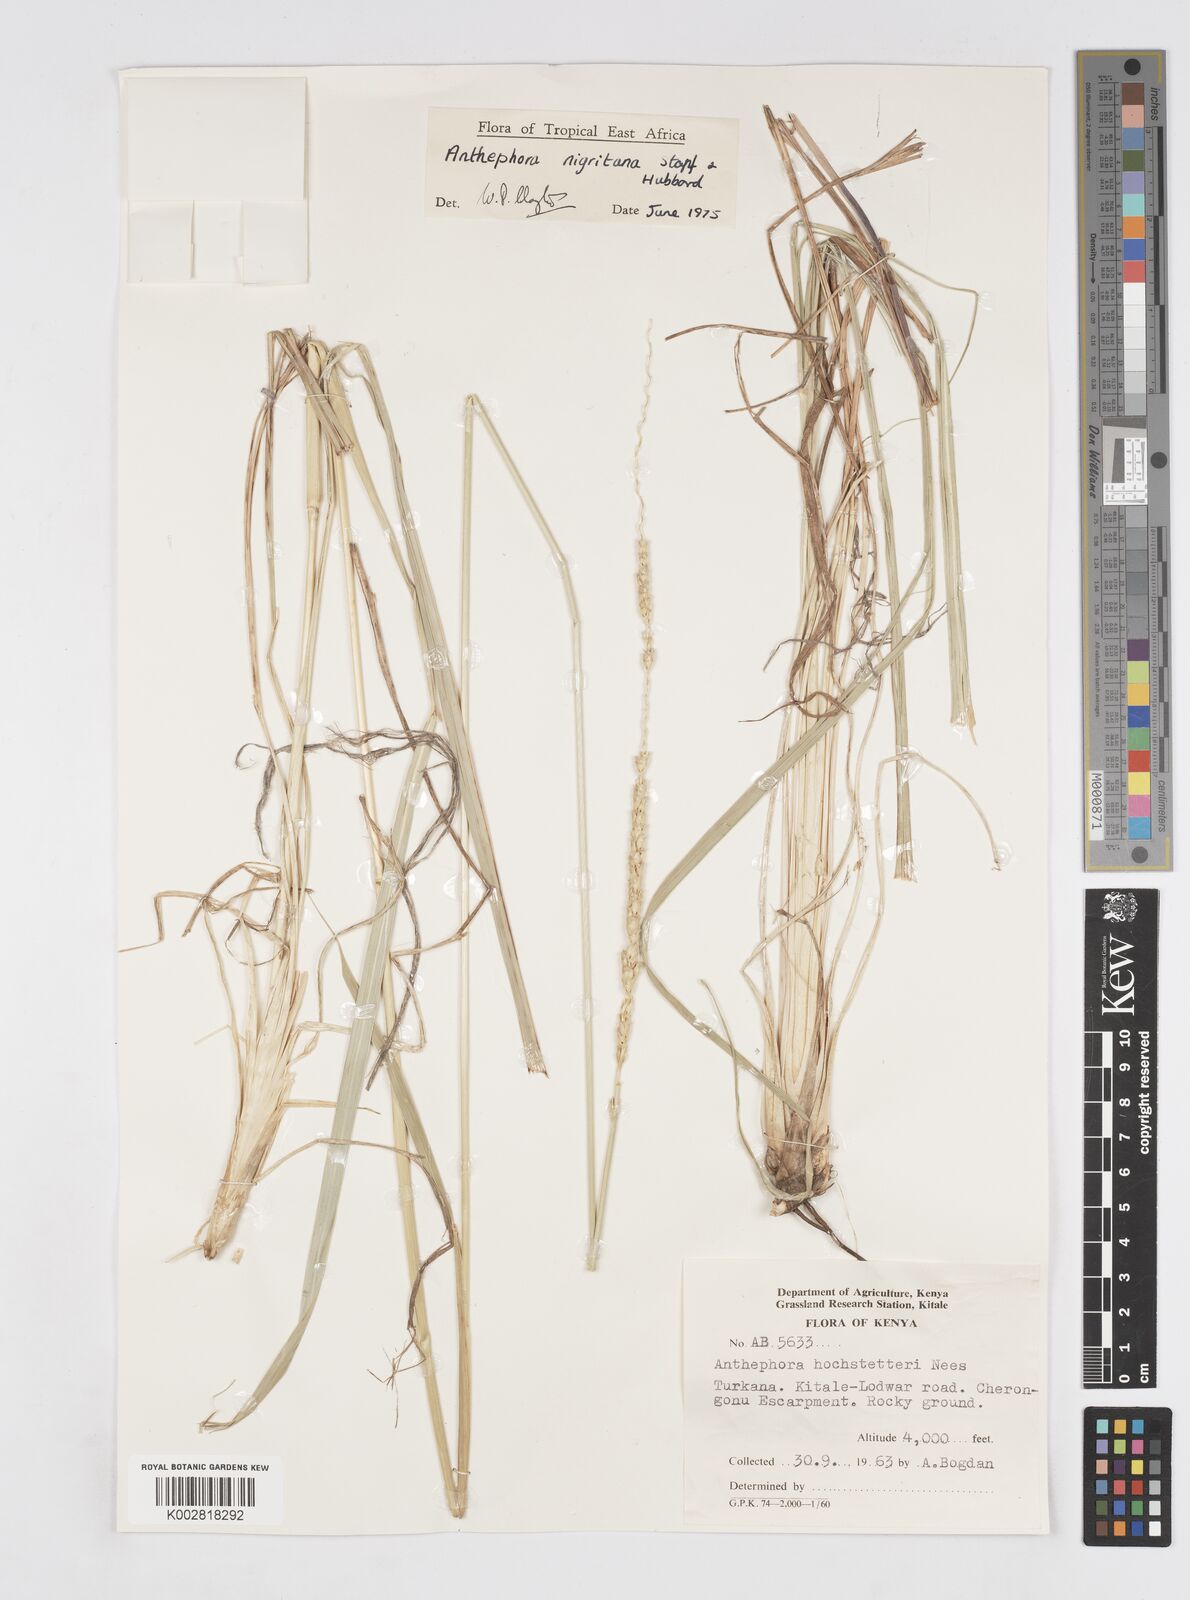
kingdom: Plantae
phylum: Tracheophyta
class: Liliopsida
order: Poales
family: Poaceae
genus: Anthephora
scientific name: Anthephora nigritana
